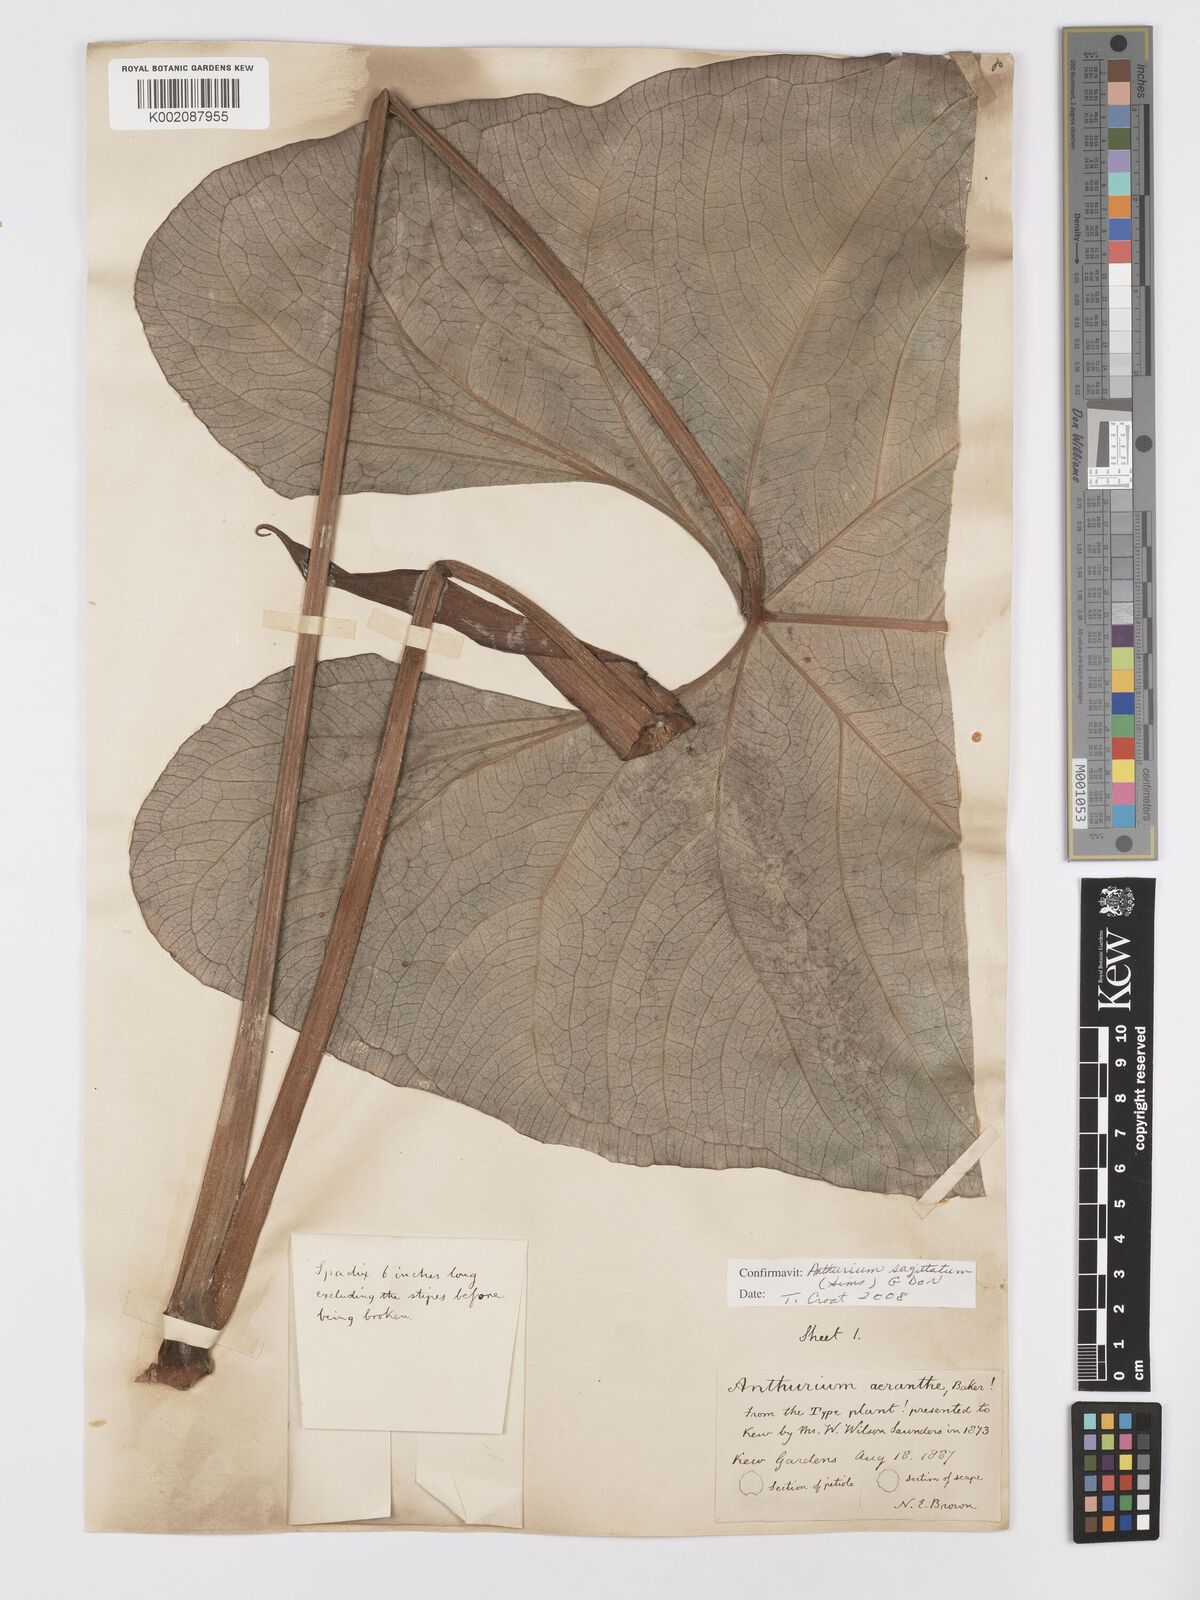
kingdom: Plantae
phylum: Tracheophyta
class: Liliopsida
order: Alismatales
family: Araceae
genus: Anthurium
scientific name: Anthurium sagittatum
